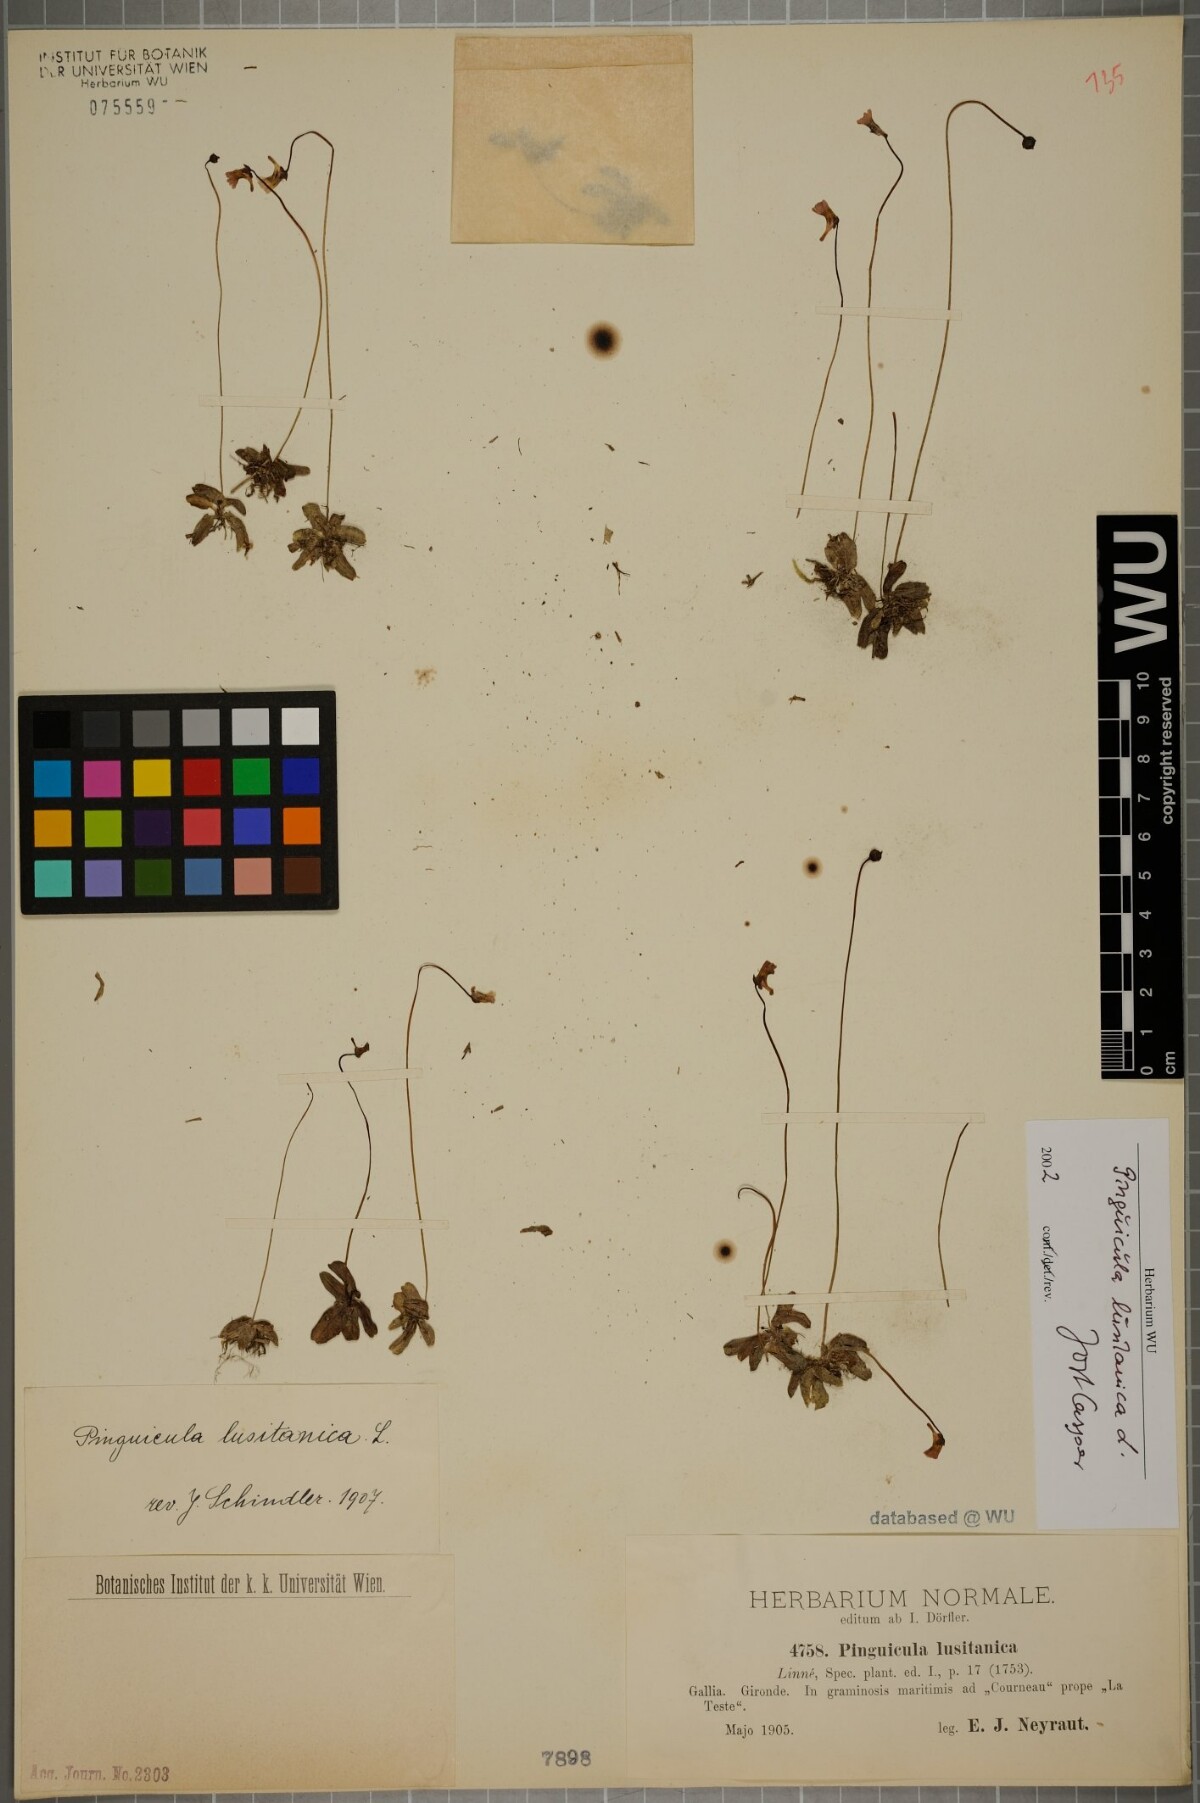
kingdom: Plantae
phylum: Tracheophyta
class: Magnoliopsida
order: Lamiales
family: Lentibulariaceae
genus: Pinguicula
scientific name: Pinguicula lusitanica
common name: Pale butterwort
